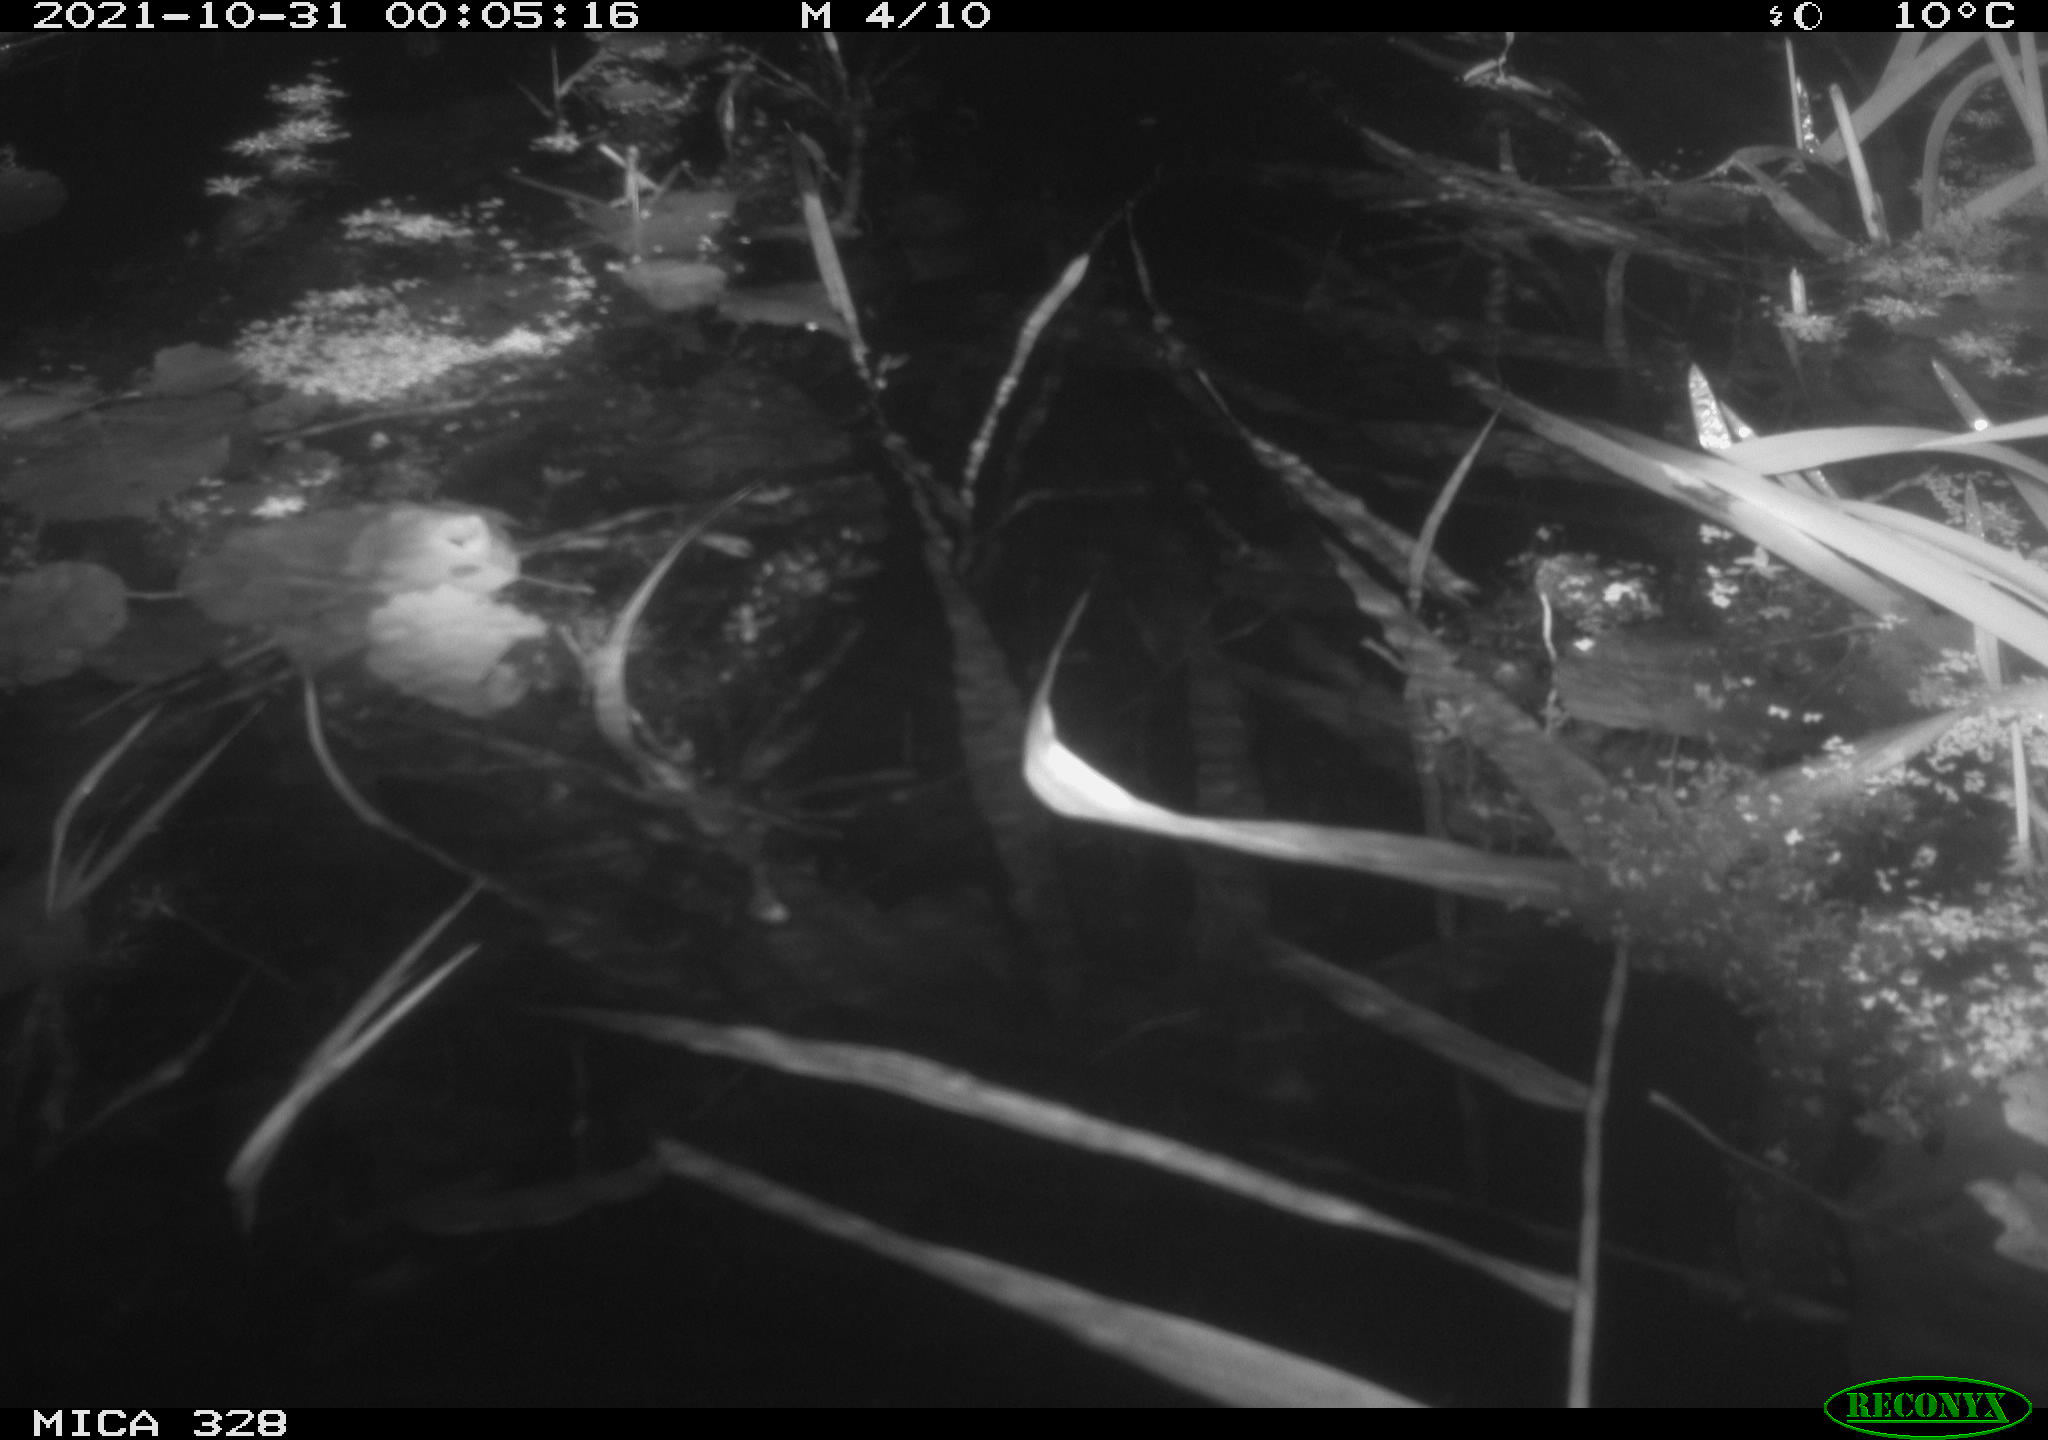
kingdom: Animalia
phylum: Chordata
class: Mammalia
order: Rodentia
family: Cricetidae
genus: Ondatra
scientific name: Ondatra zibethicus
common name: Muskrat
